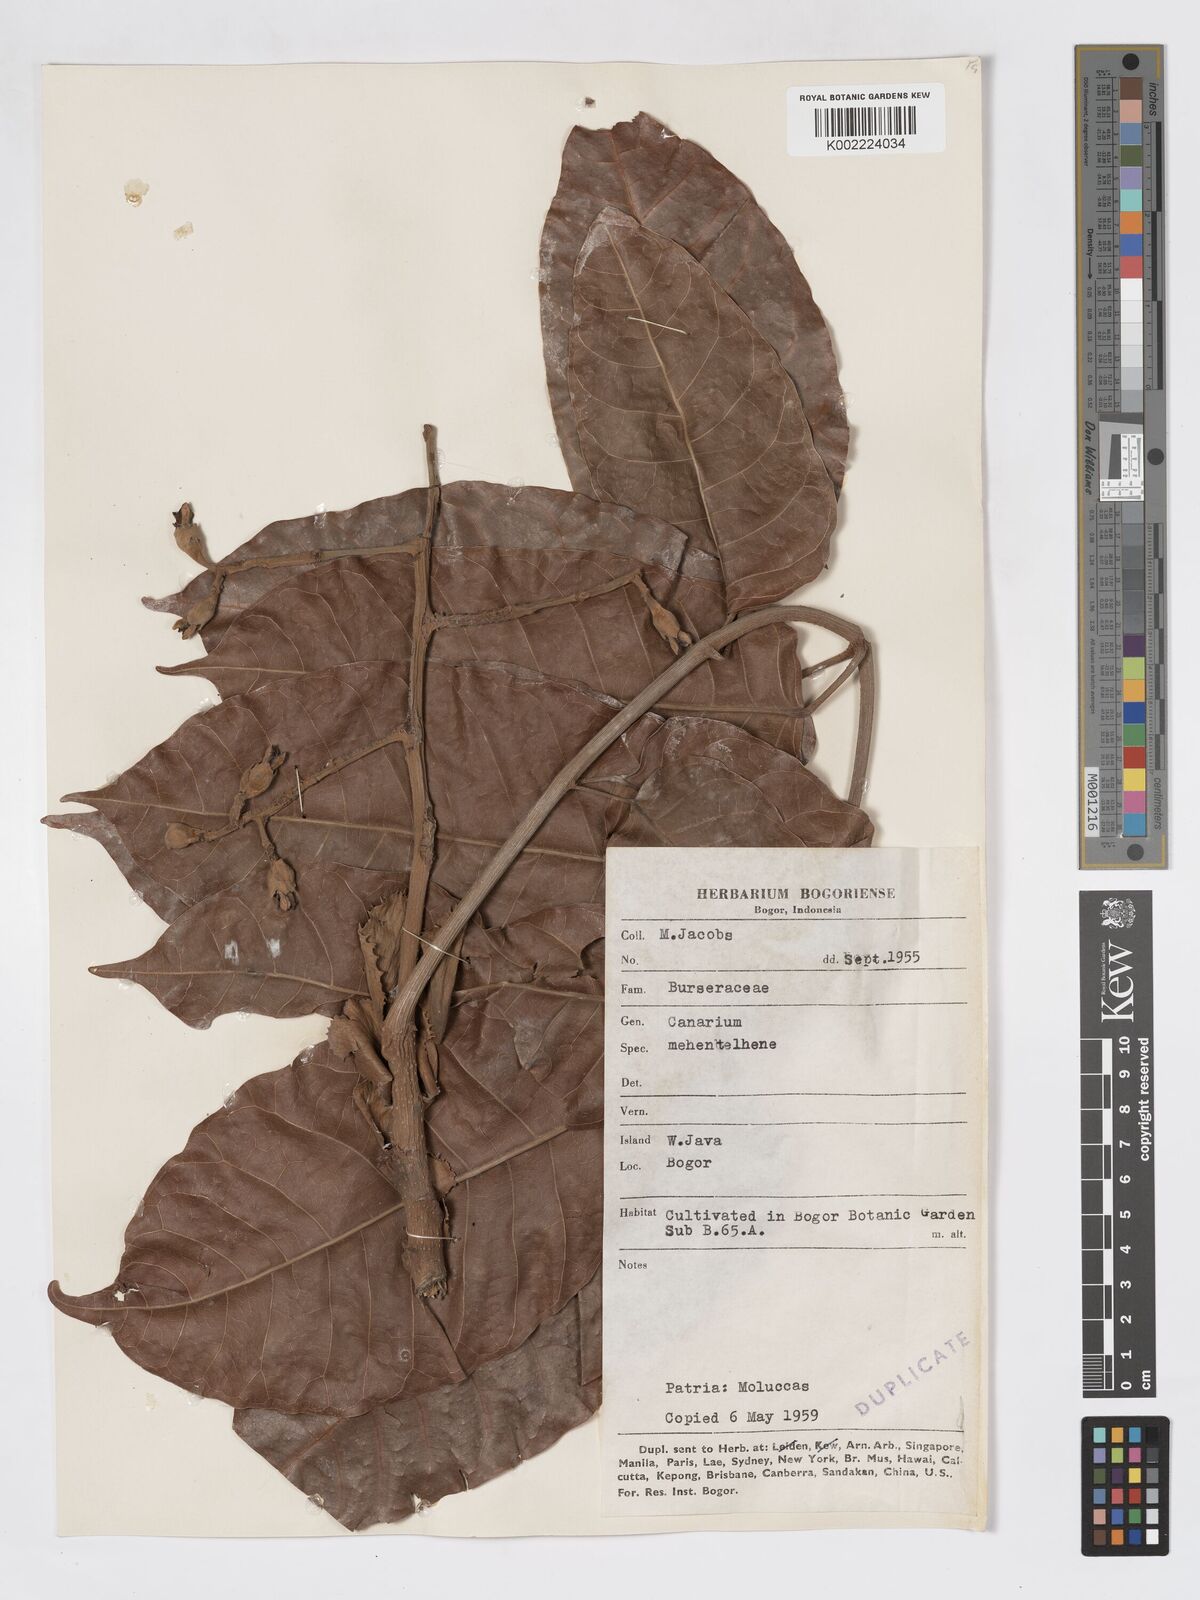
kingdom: Plantae
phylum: Tracheophyta
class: Magnoliopsida
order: Sapindales
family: Burseraceae
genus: Canarium
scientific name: Canarium indicum
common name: Canarium-nut
